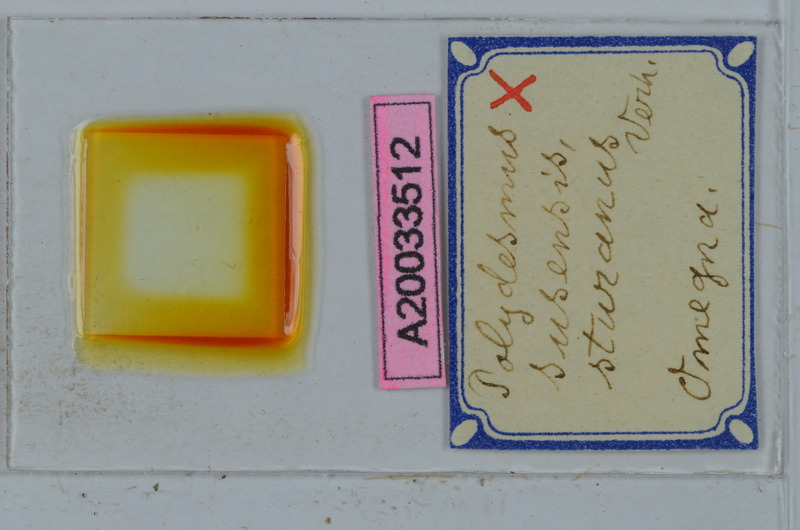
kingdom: Animalia
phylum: Arthropoda
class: Diplopoda
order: Polydesmida
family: Polydesmidae
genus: Polydesmus
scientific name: Polydesmus susensis
